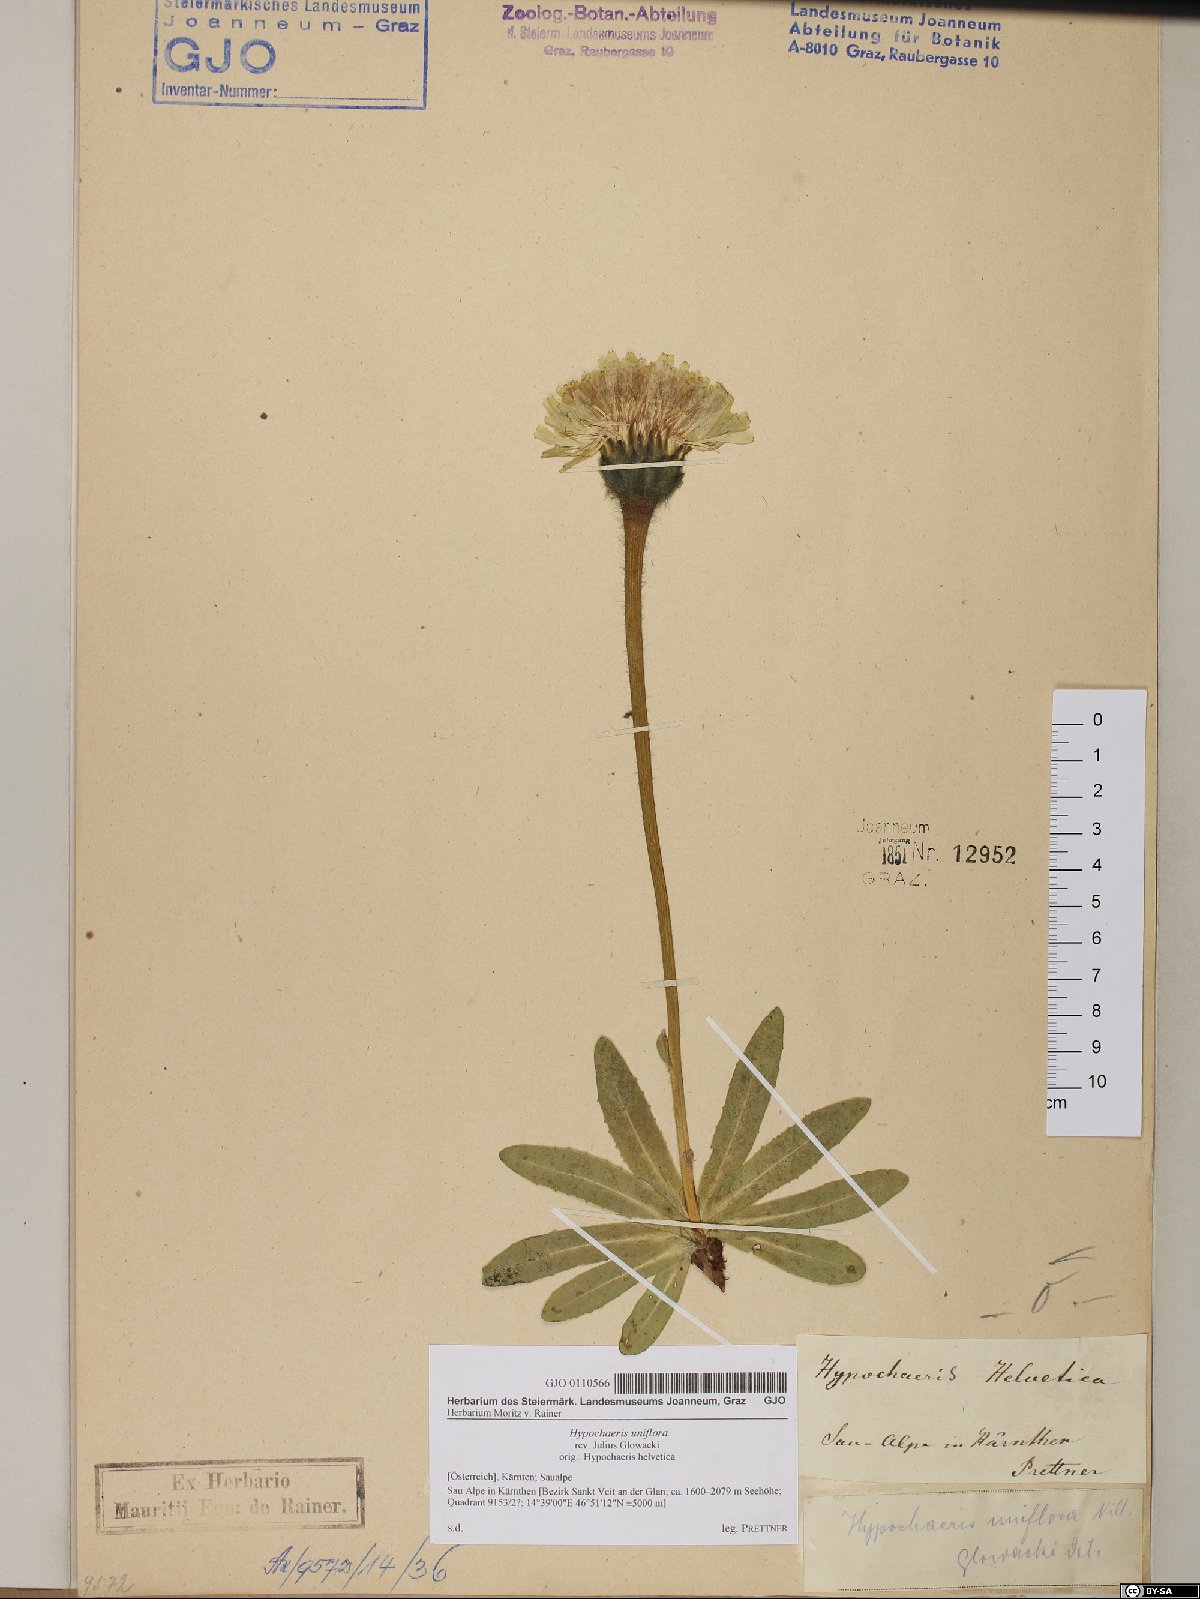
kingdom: Plantae
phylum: Tracheophyta
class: Magnoliopsida
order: Asterales
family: Asteraceae
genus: Trommsdorffia
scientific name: Trommsdorffia uniflora
